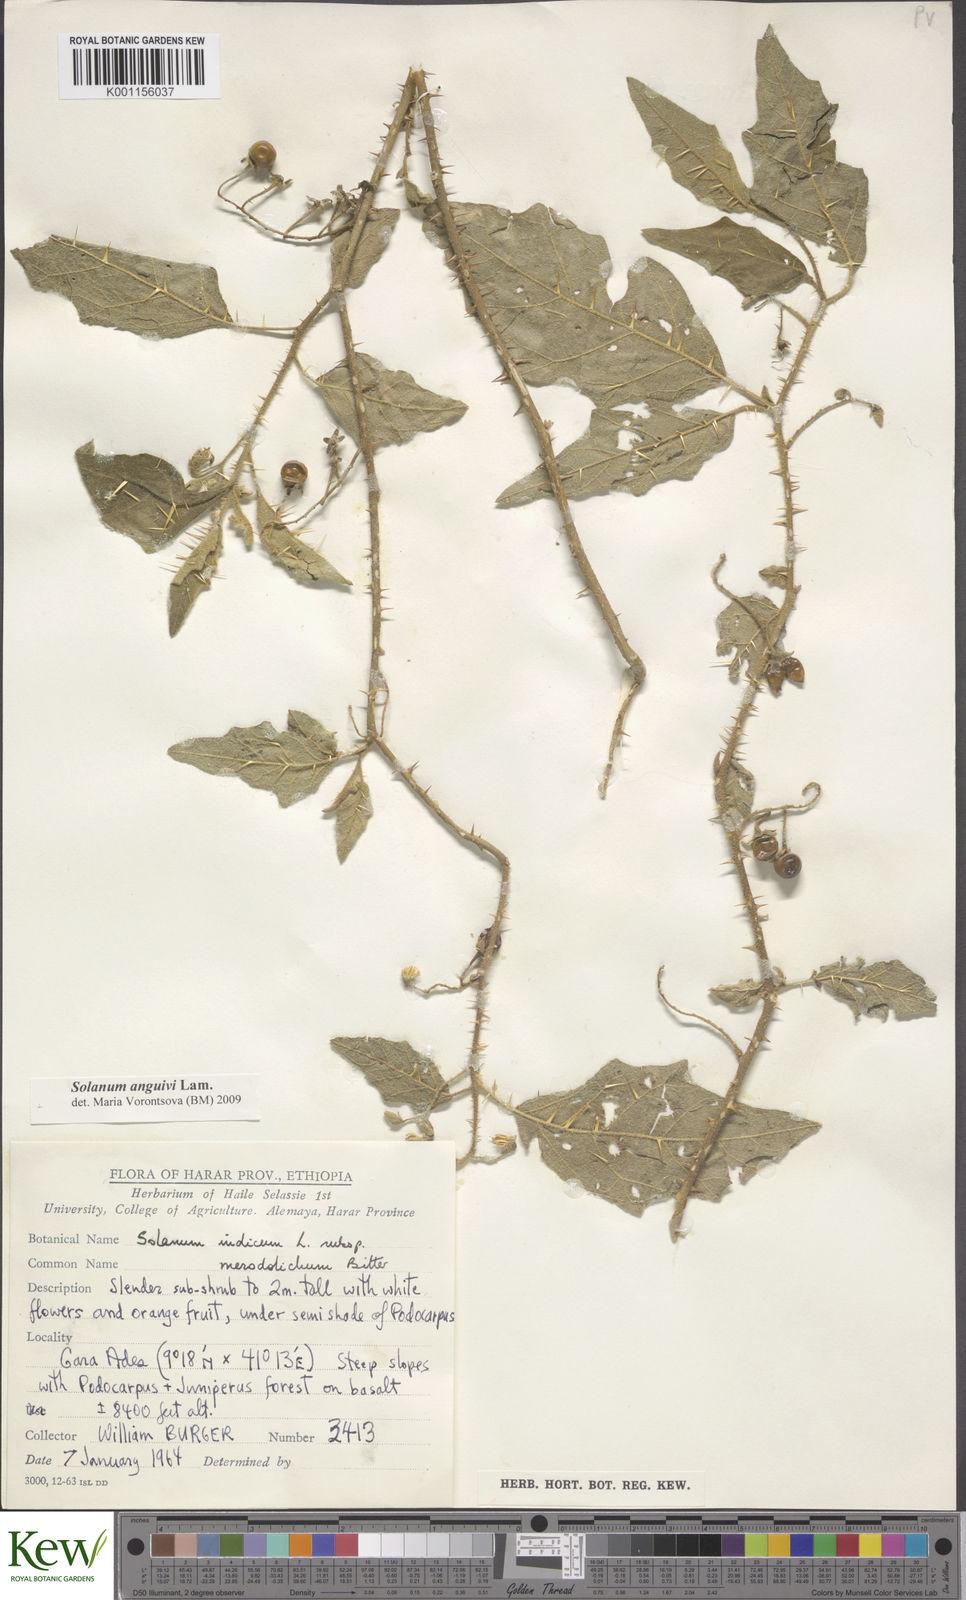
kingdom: Plantae
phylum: Tracheophyta
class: Magnoliopsida
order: Solanales
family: Solanaceae
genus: Solanum
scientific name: Solanum anguivi
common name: Forest bitterberry
